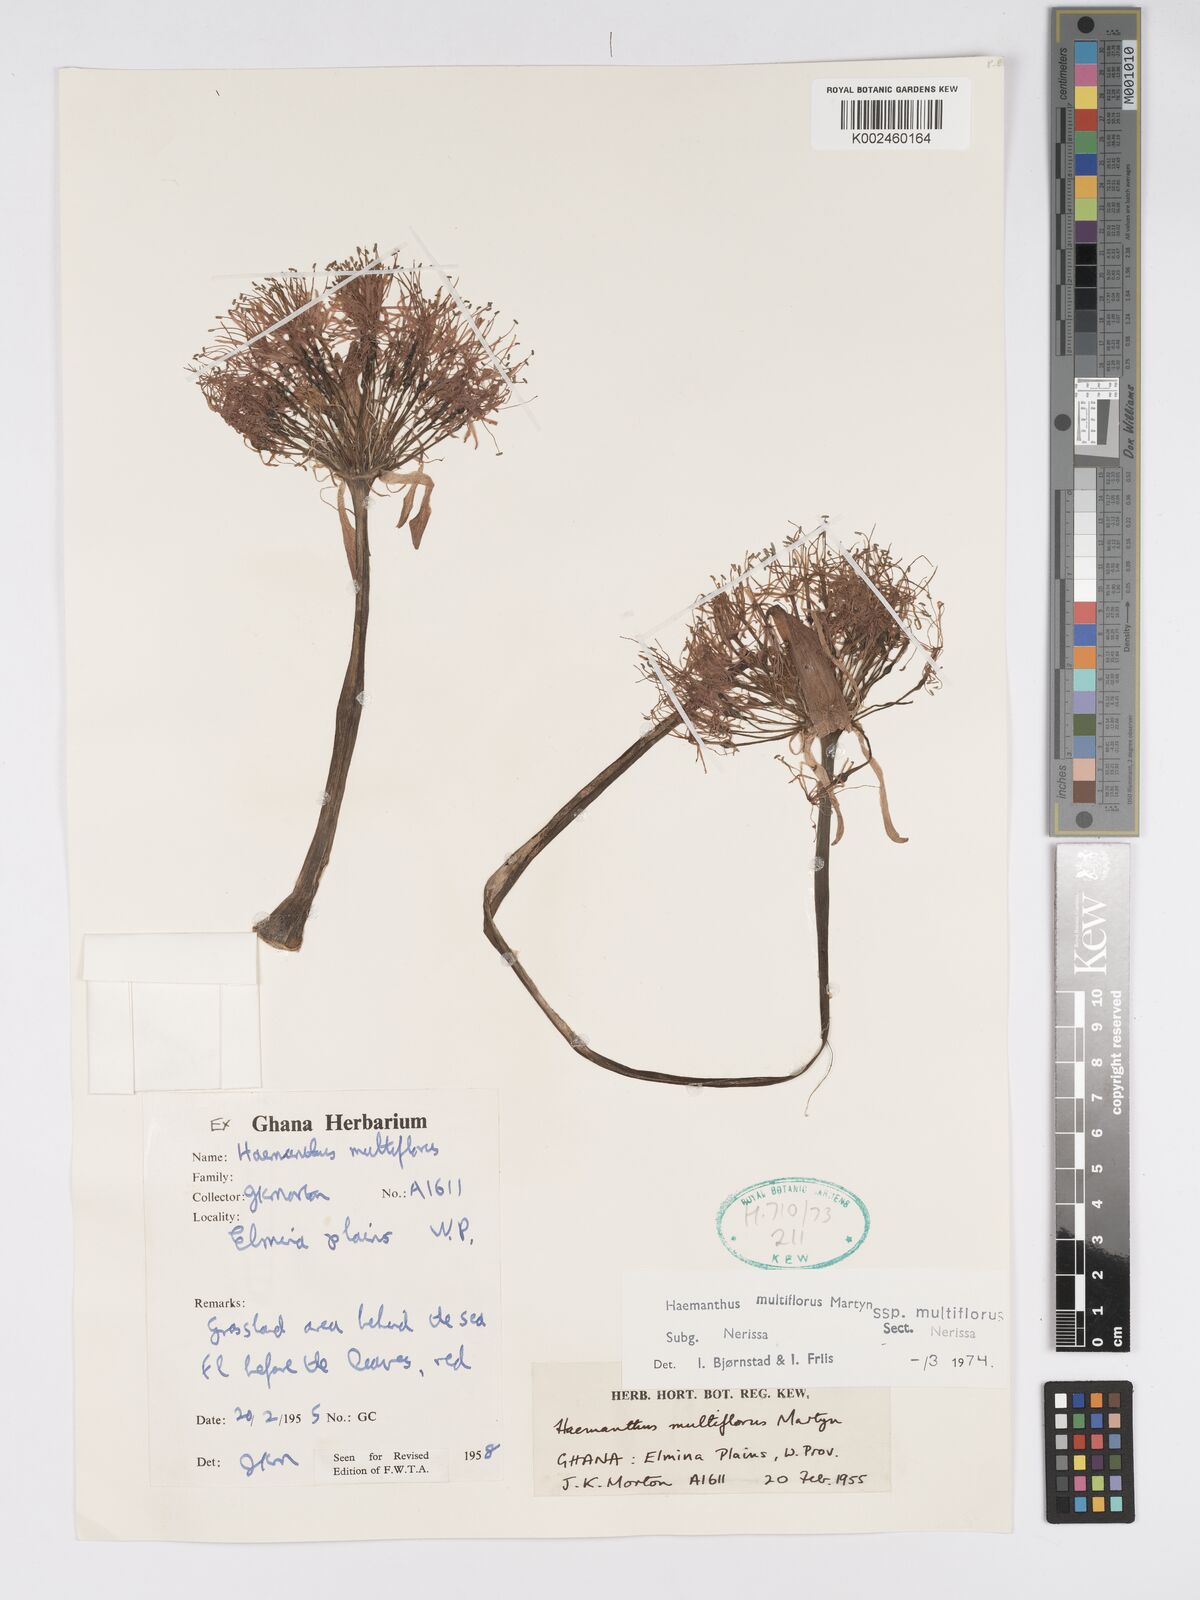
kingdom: Plantae
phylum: Tracheophyta
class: Liliopsida
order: Asparagales
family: Amaryllidaceae
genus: Scadoxus
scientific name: Scadoxus multiflorus
